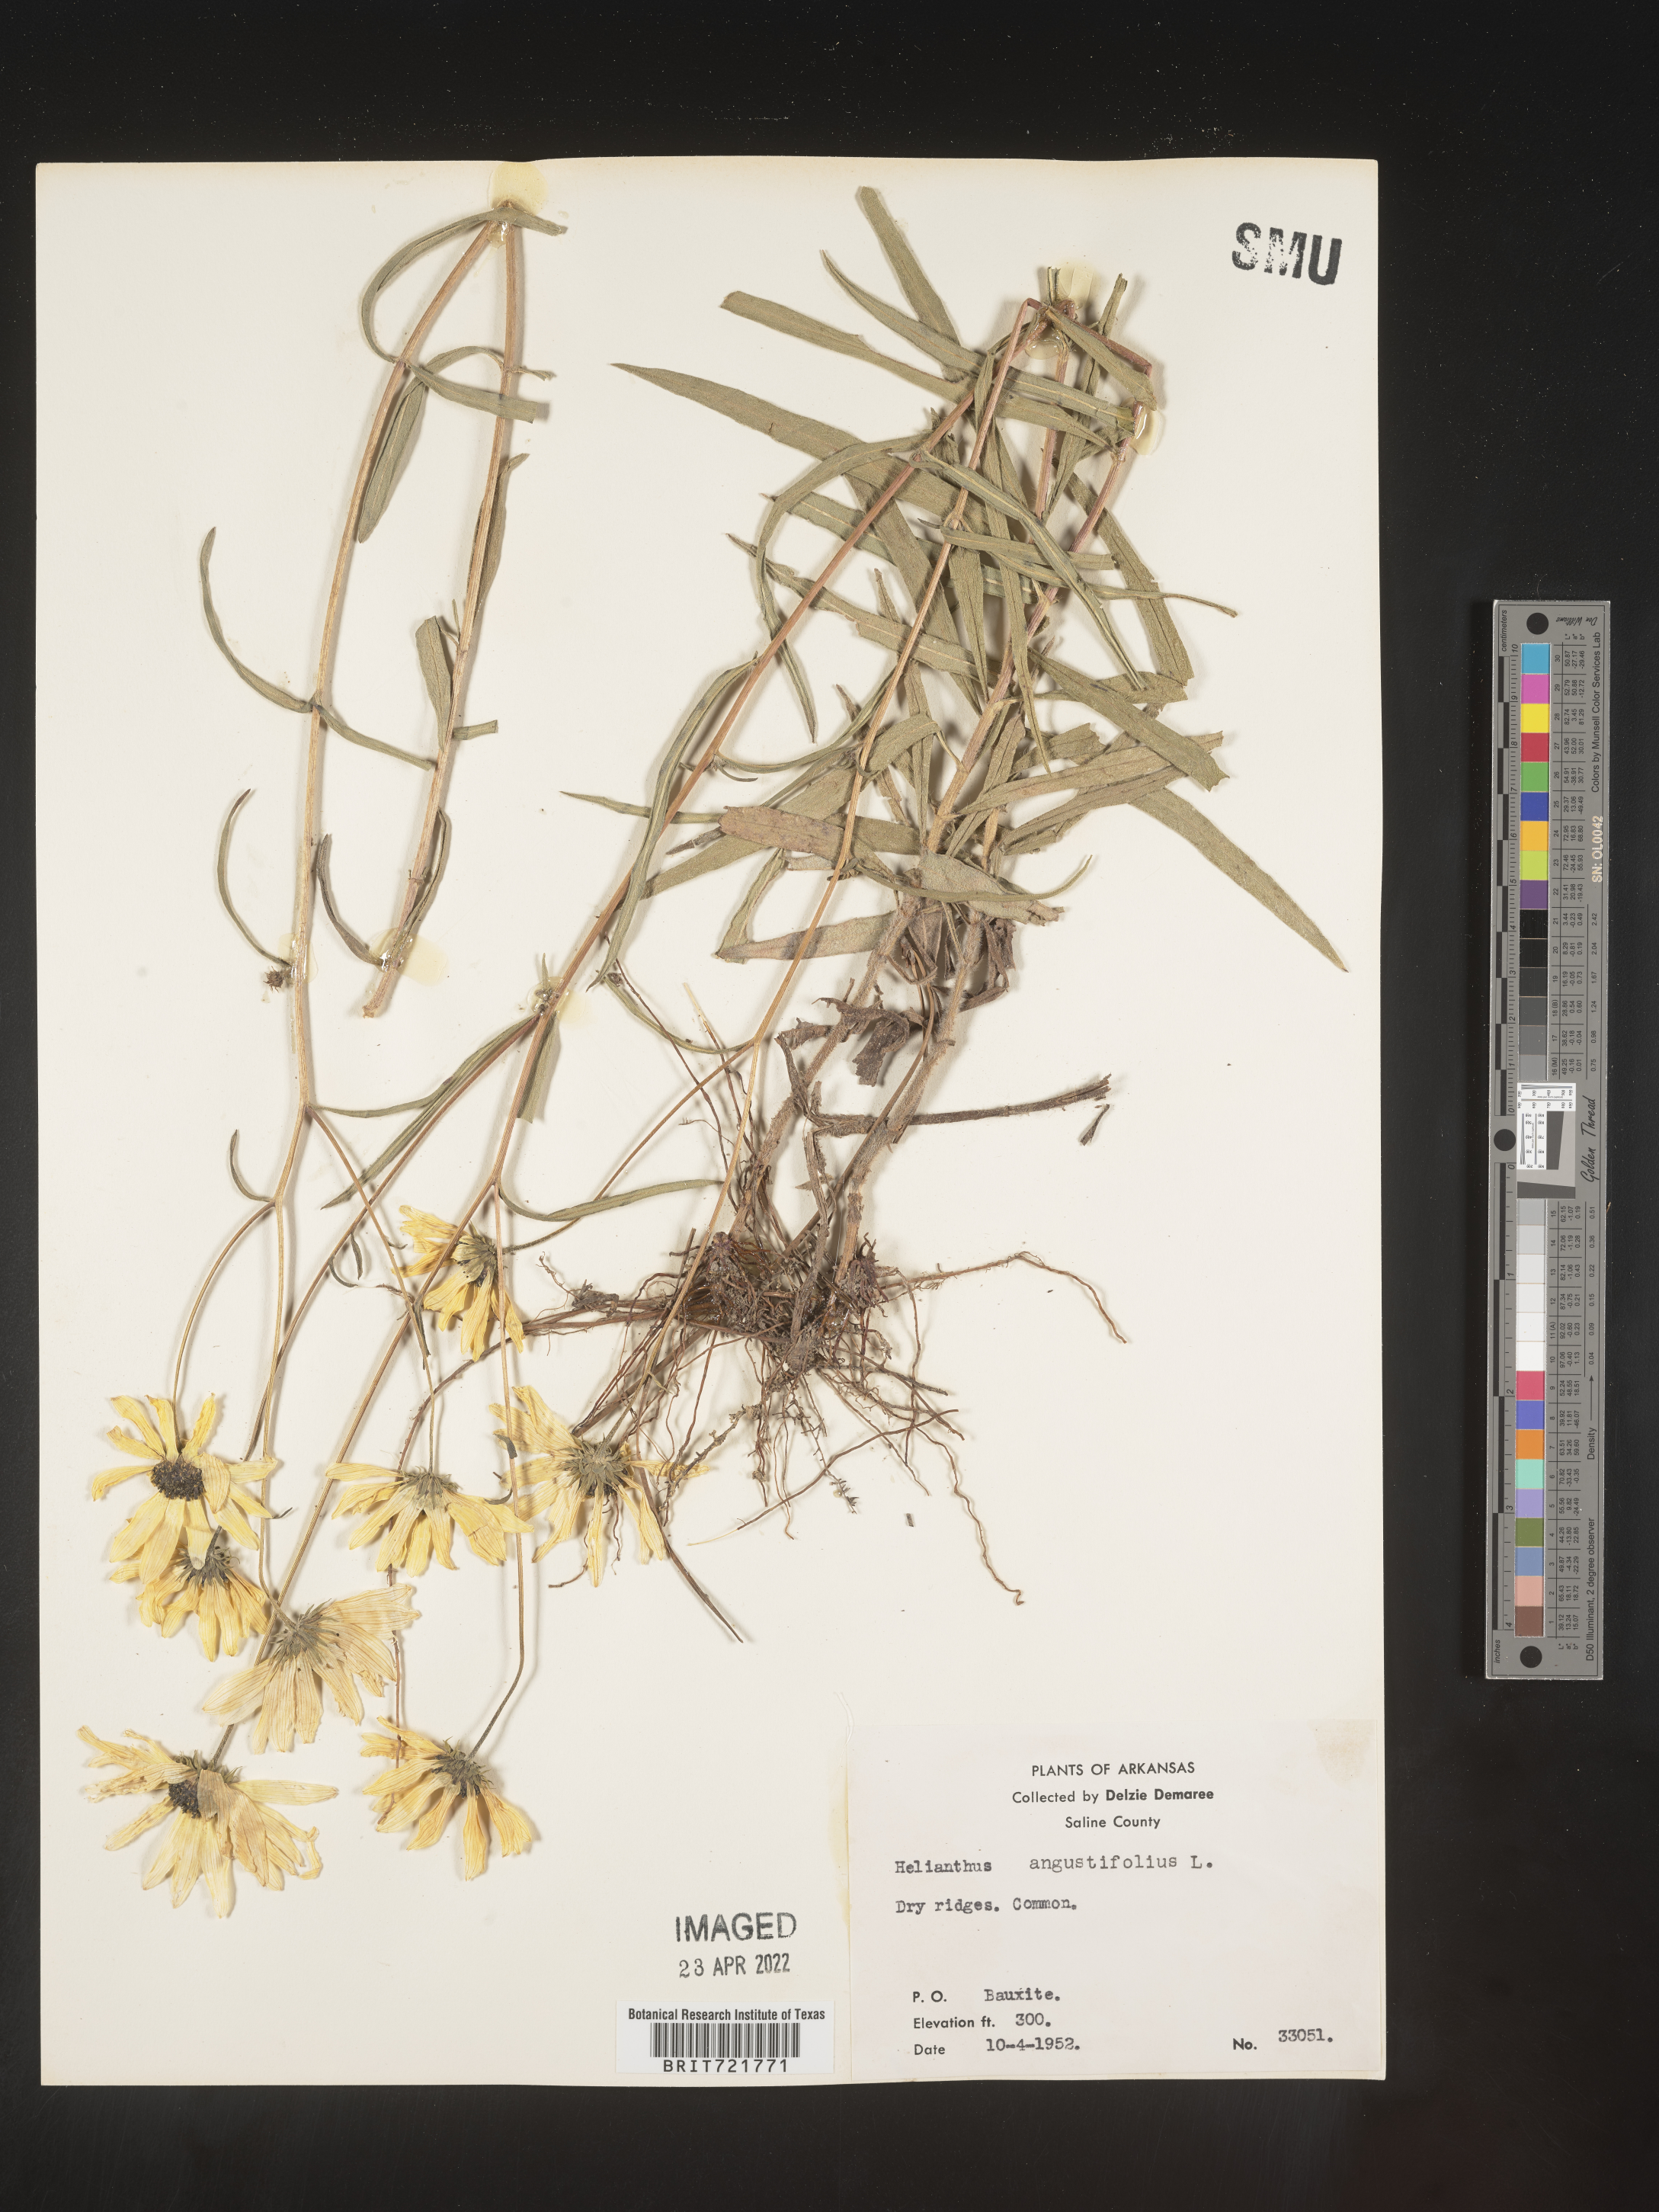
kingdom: Plantae
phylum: Tracheophyta
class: Magnoliopsida
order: Asterales
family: Asteraceae
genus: Helianthus
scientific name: Helianthus angustifolius
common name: Swamp sunflower
